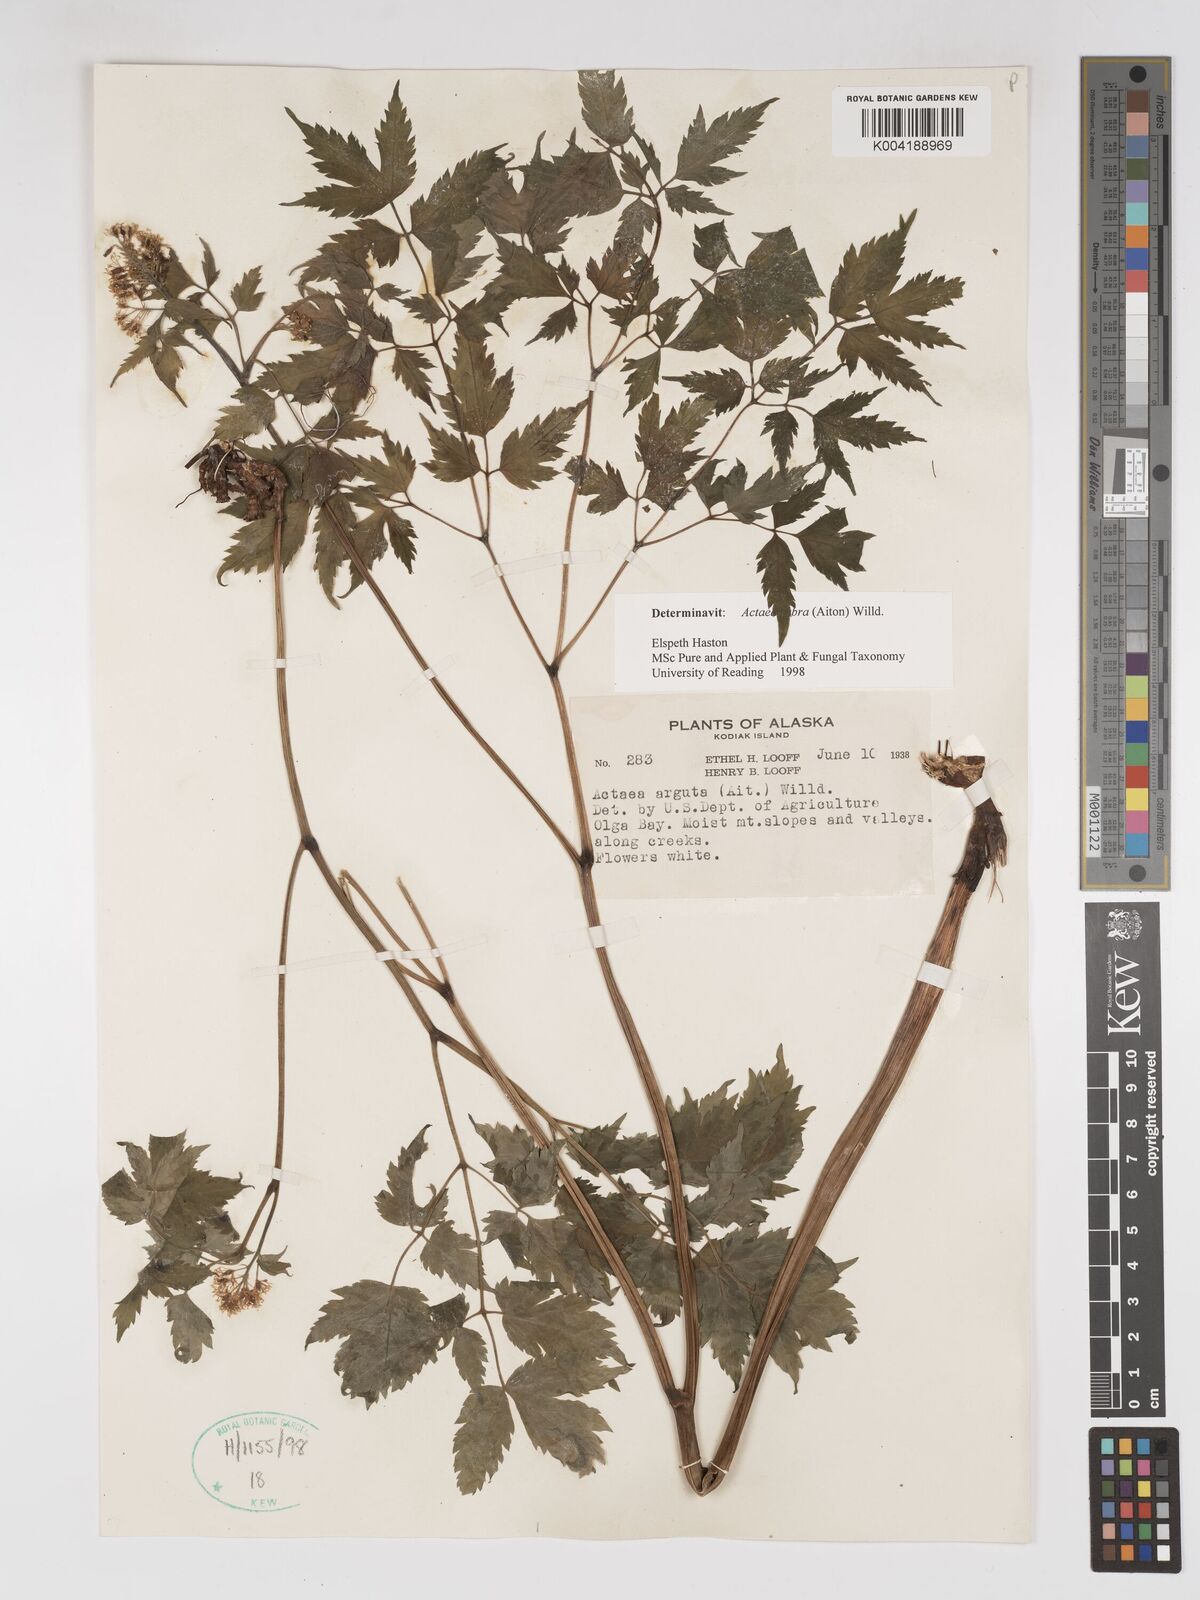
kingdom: Plantae
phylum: Tracheophyta
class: Magnoliopsida
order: Ranunculales
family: Ranunculaceae
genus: Actaea
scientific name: Actaea rubra
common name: Red baneberry
